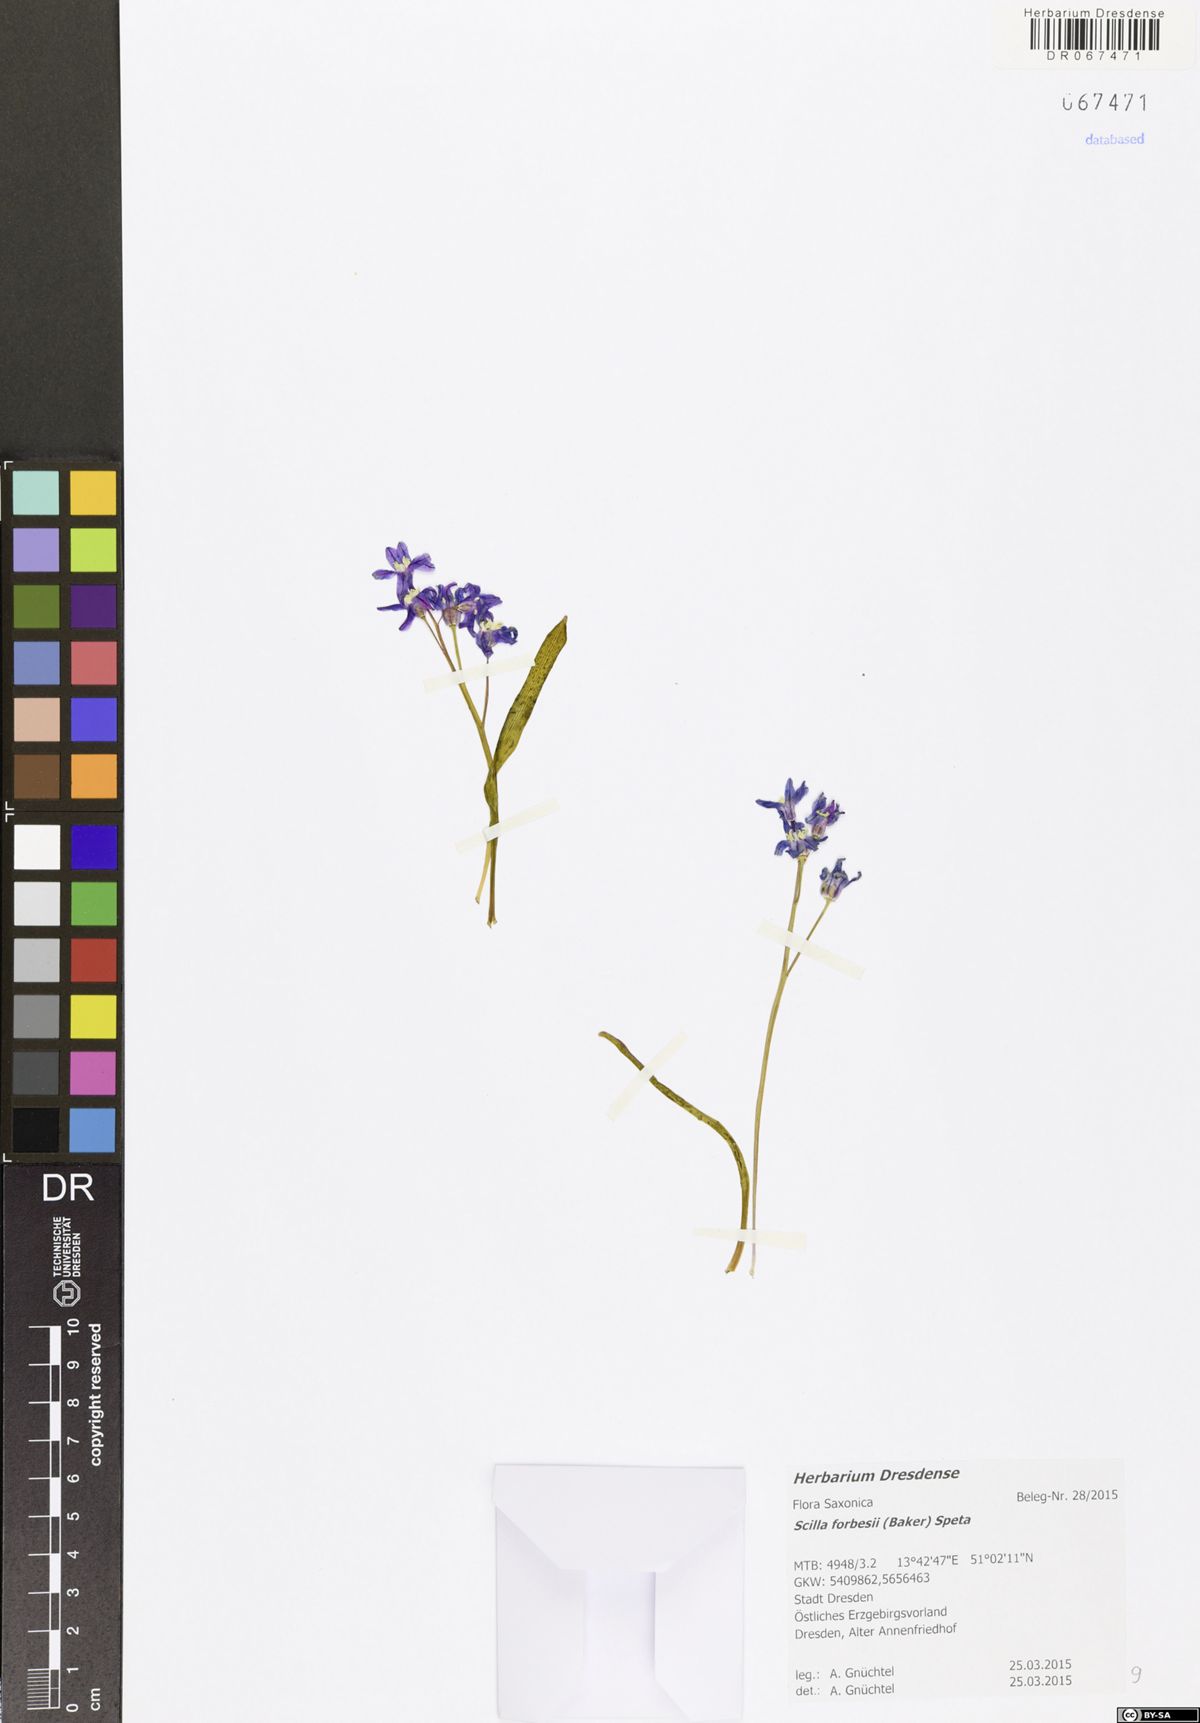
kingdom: Plantae
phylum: Tracheophyta
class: Liliopsida
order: Asparagales
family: Asparagaceae
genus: Scilla
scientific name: Scilla siberica
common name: Siberian squill
